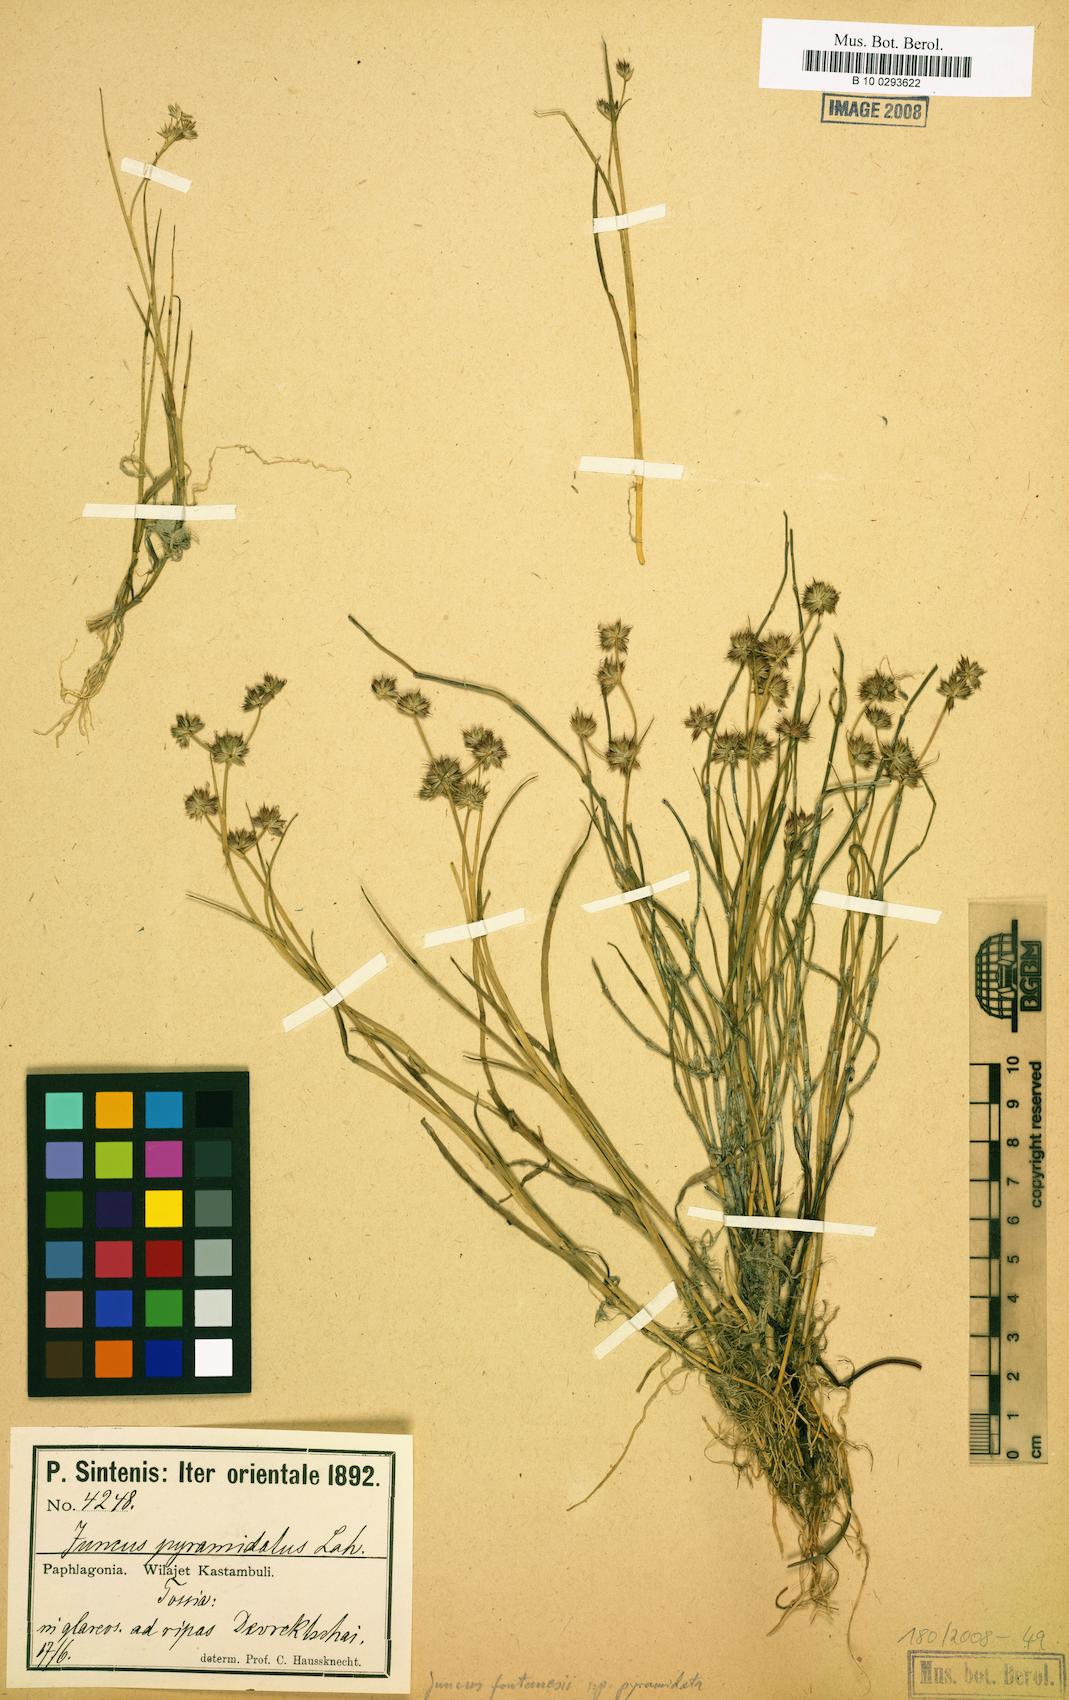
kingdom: Plantae
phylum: Tracheophyta
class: Liliopsida
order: Poales
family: Juncaceae
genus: Juncus
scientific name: Juncus fontanesii
